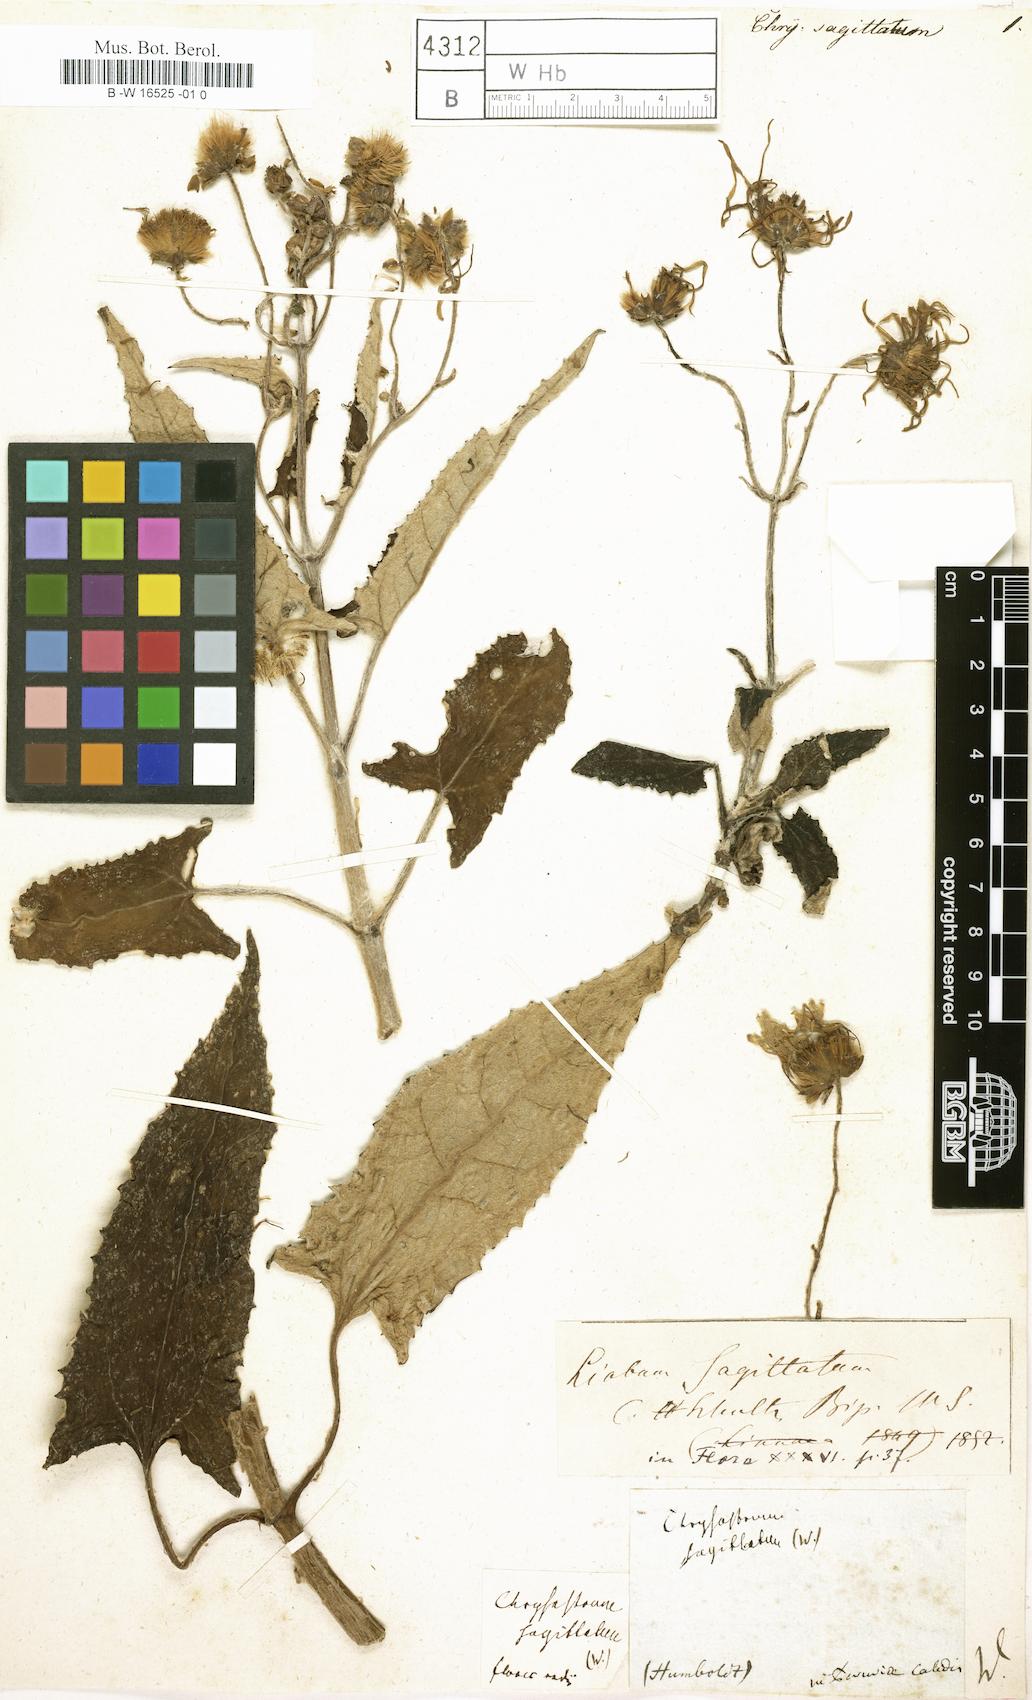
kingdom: Plantae
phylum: Tracheophyta
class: Magnoliopsida
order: Asterales
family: Asteraceae
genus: Munnozia
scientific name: Munnozia senecionidis
